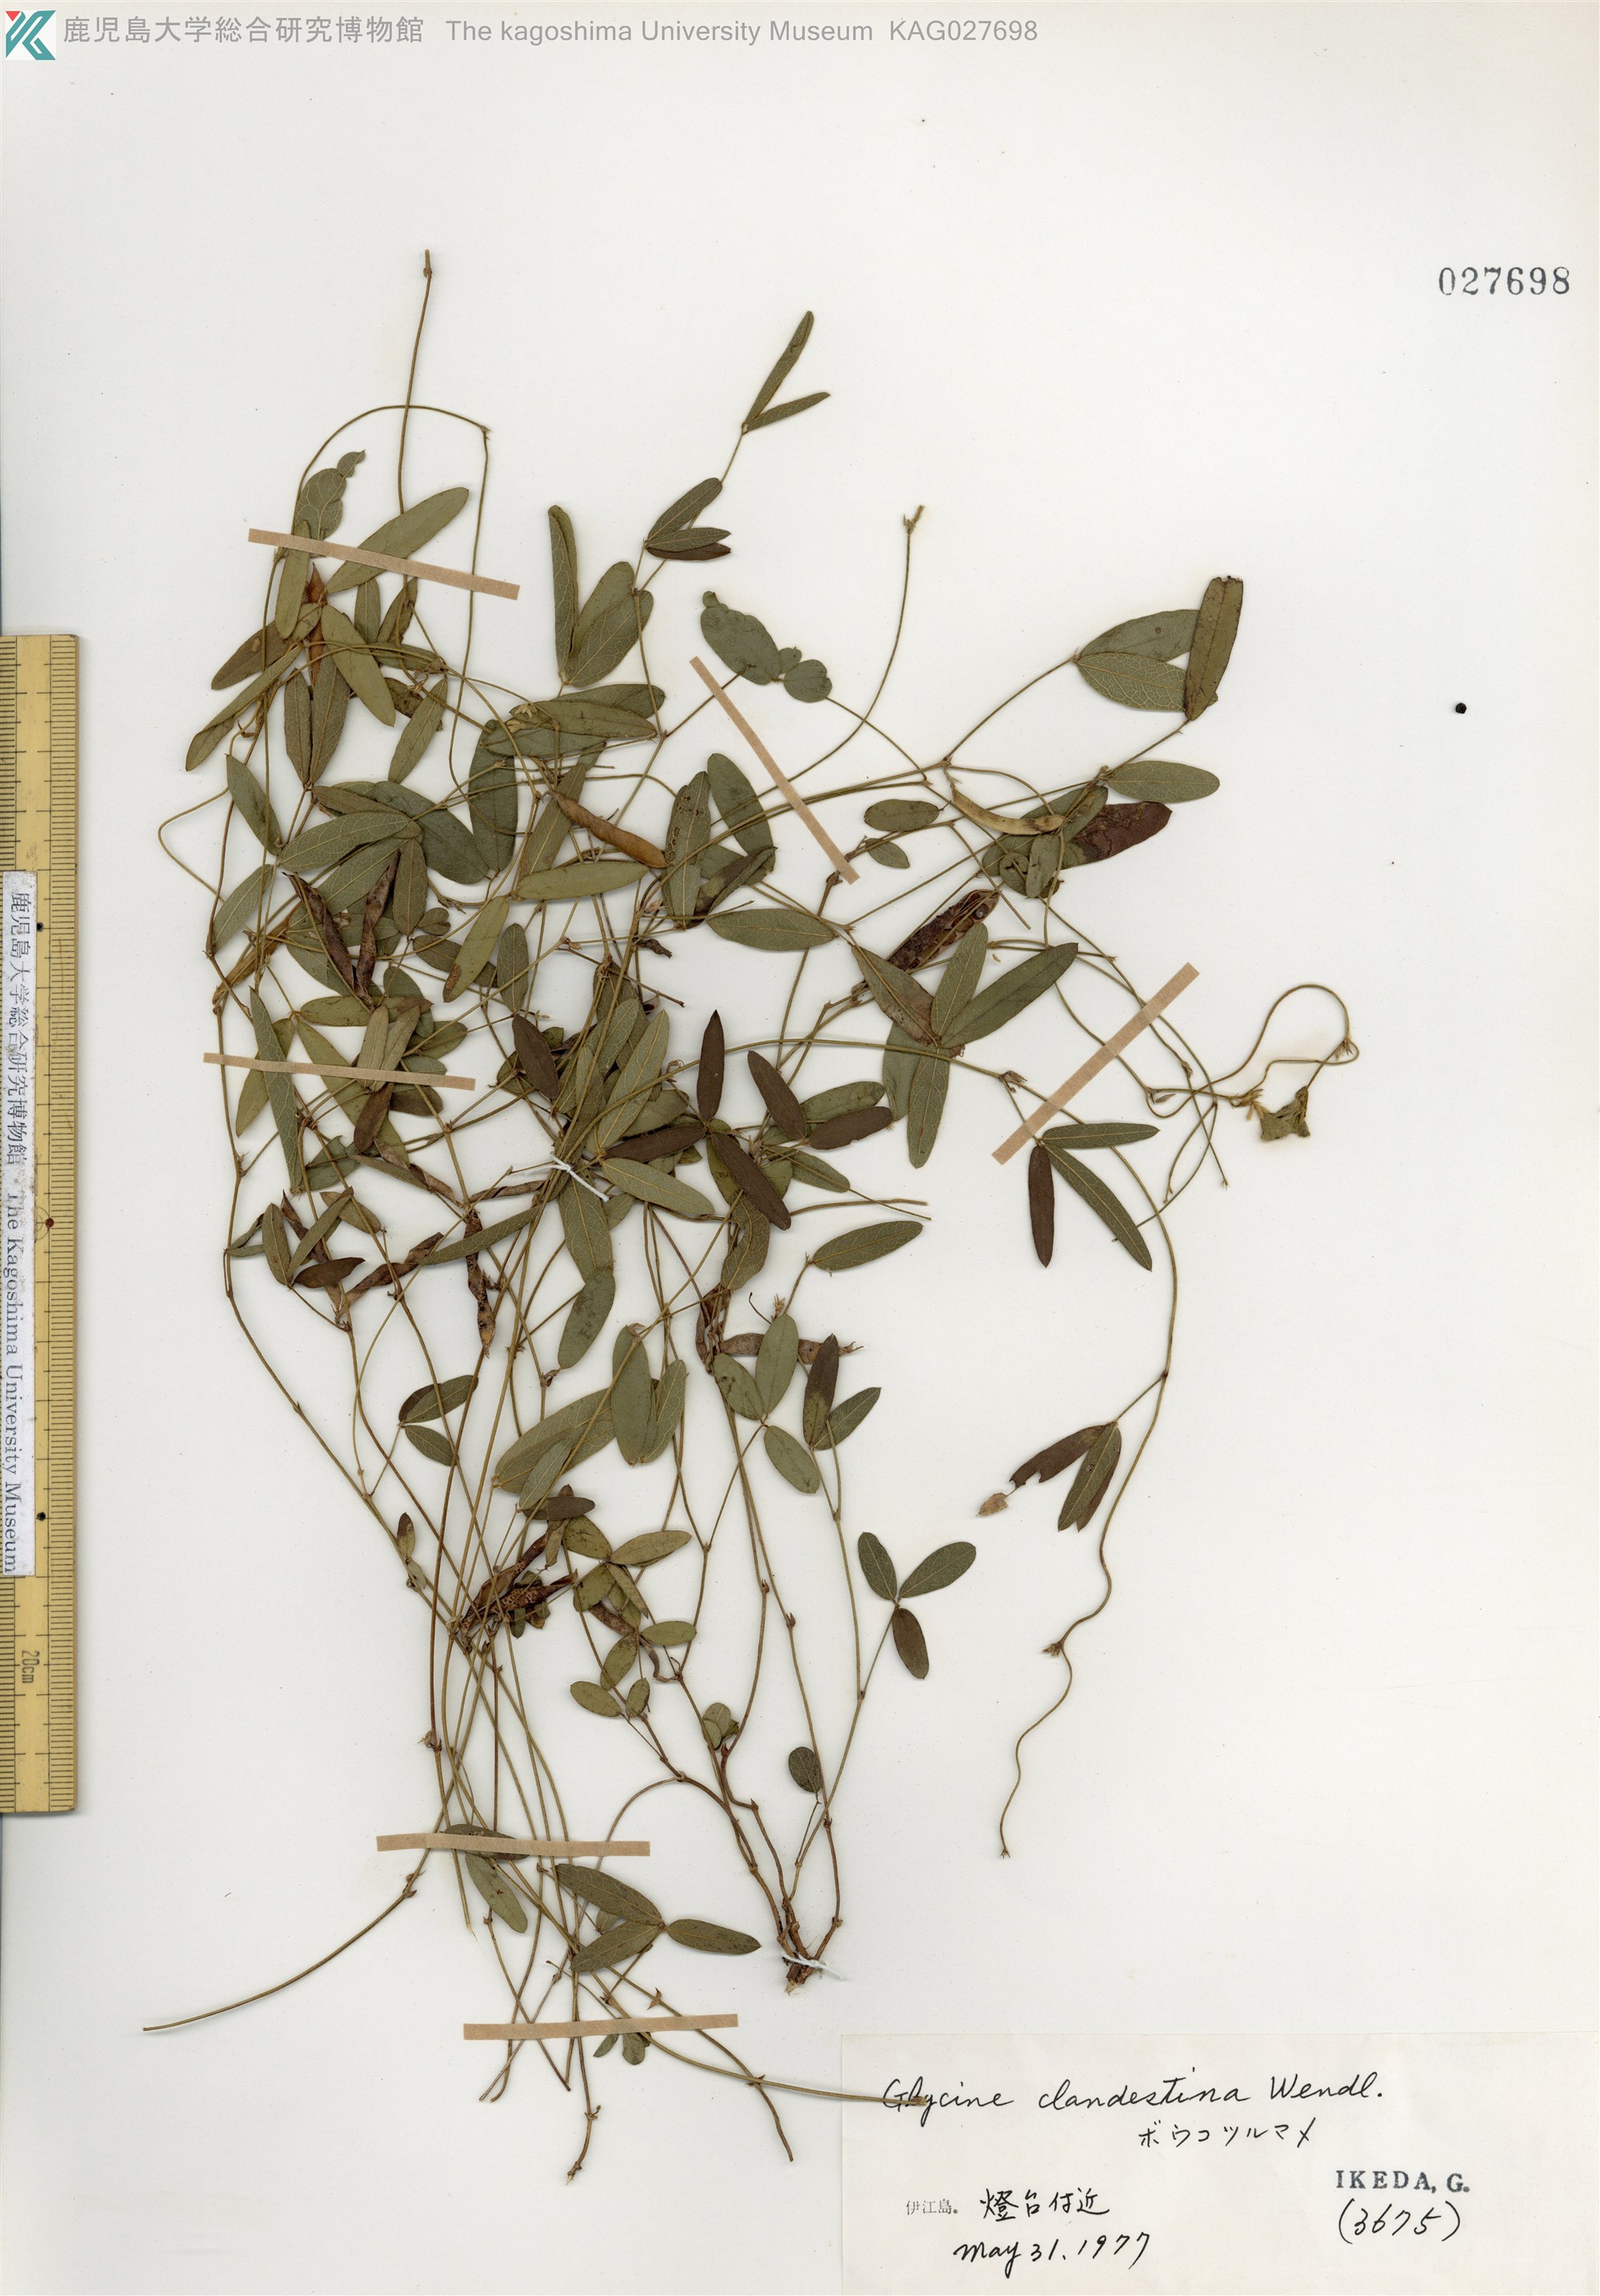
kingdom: Plantae
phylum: Tracheophyta
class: Magnoliopsida
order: Fabales
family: Fabaceae
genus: Glycine
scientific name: Glycine tabacina
